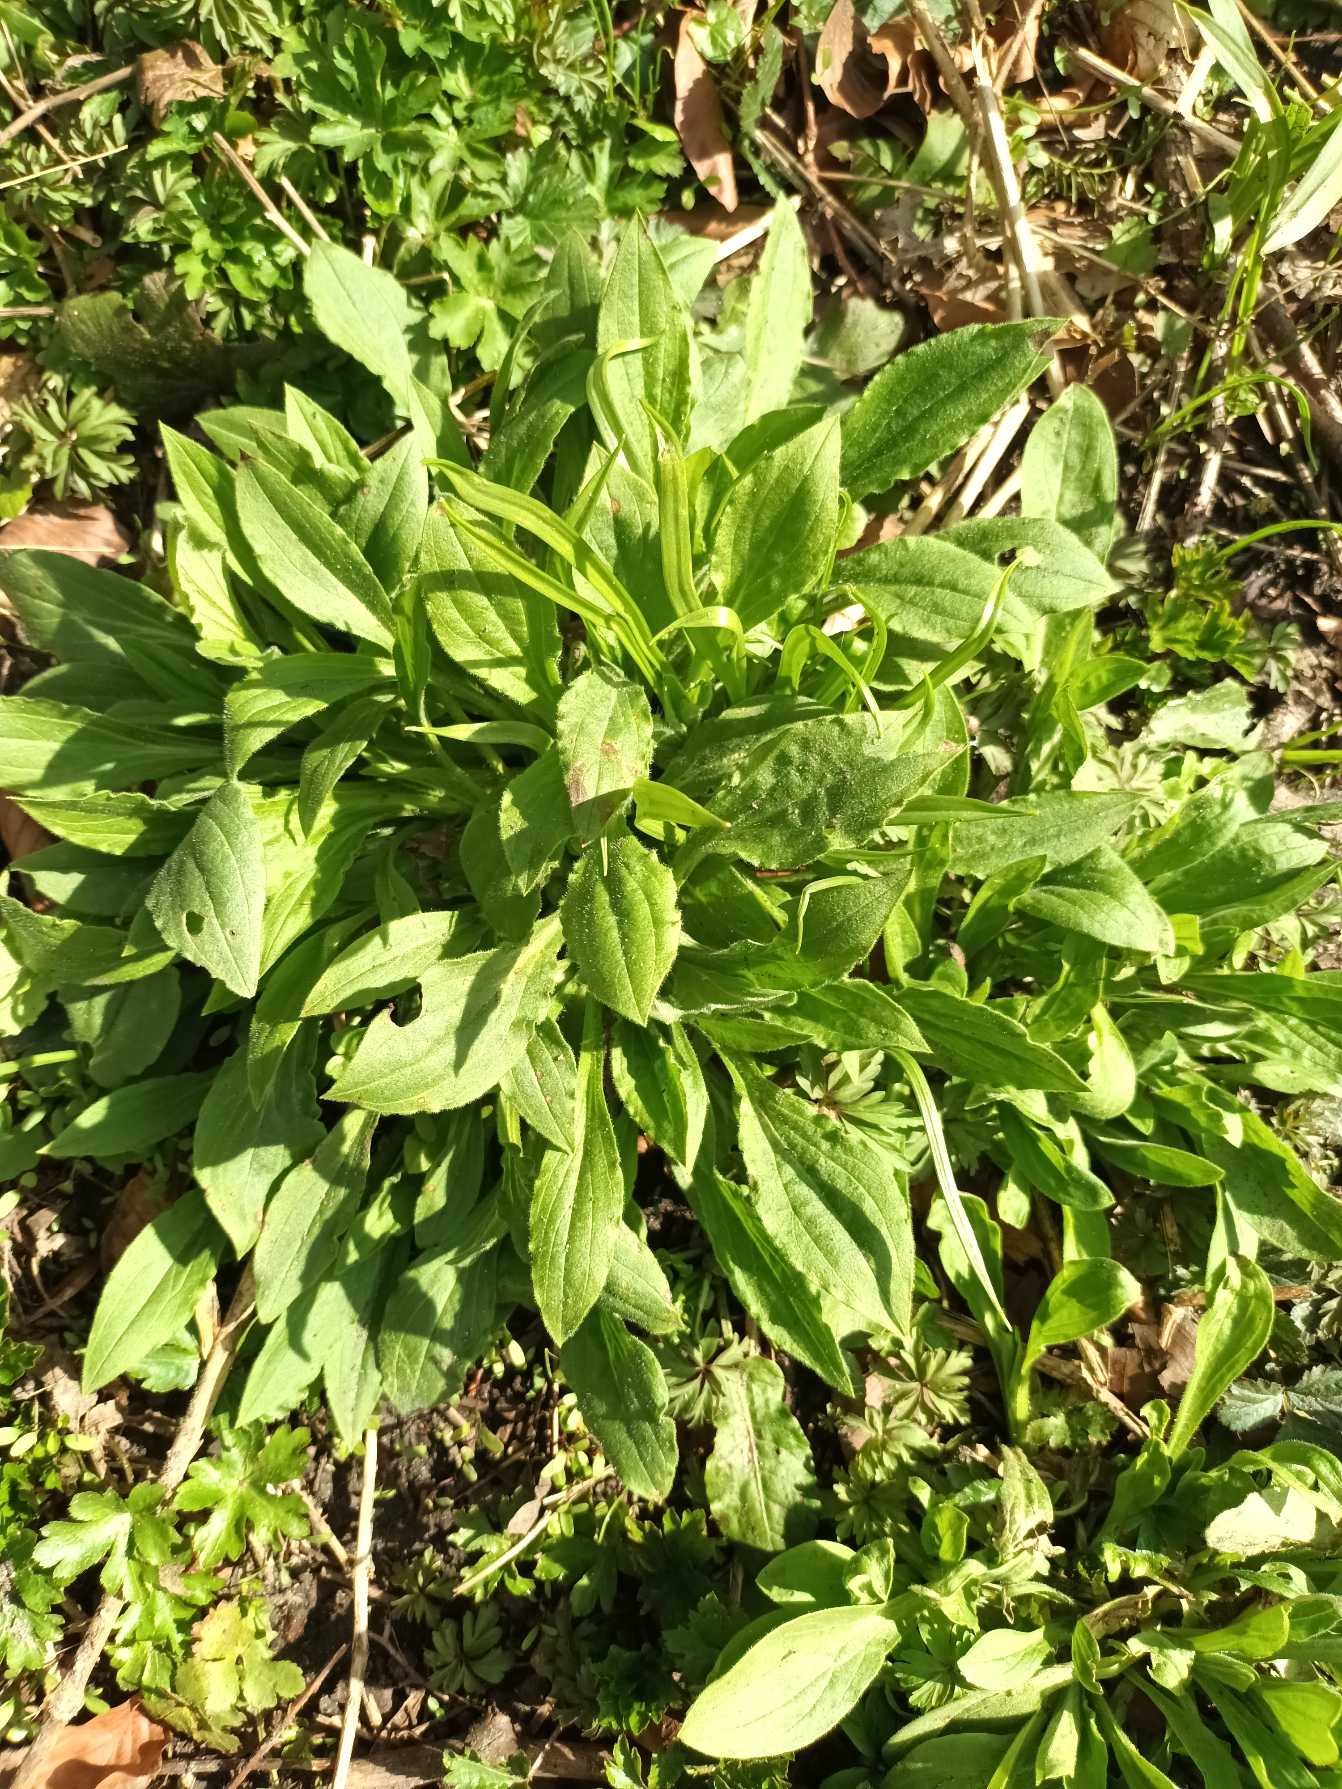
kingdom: Plantae
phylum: Tracheophyta
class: Magnoliopsida
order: Caryophyllales
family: Caryophyllaceae
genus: Silene
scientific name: Silene dioica
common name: Dagpragtstjerne
